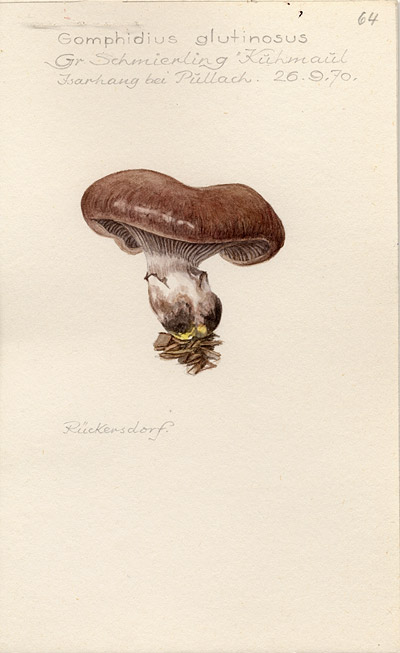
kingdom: Fungi
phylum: Basidiomycota
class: Agaricomycetes
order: Boletales
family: Gomphidiaceae
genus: Gomphidius
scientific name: Gomphidius glutinosus
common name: Slimy spike
